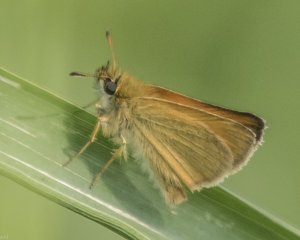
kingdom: Animalia
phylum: Arthropoda
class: Insecta
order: Lepidoptera
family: Hesperiidae
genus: Thymelicus
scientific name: Thymelicus lineola
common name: European Skipper
